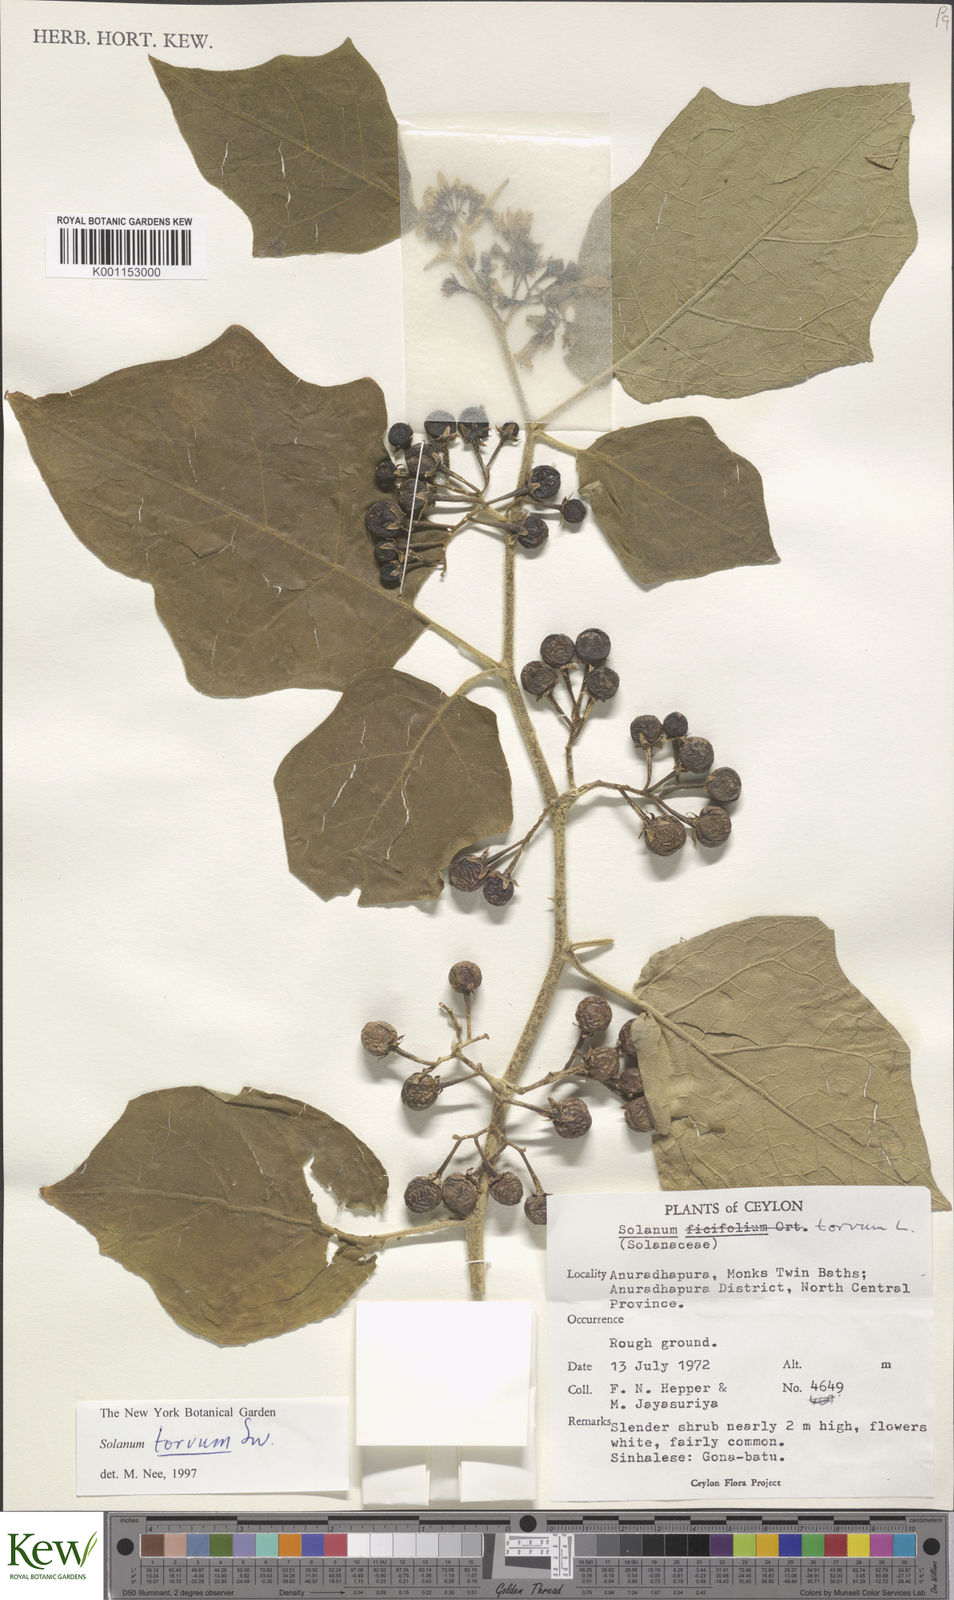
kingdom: Plantae
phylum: Tracheophyta
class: Magnoliopsida
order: Solanales
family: Solanaceae
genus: Solanum
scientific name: Solanum torvum
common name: Turkey berry
